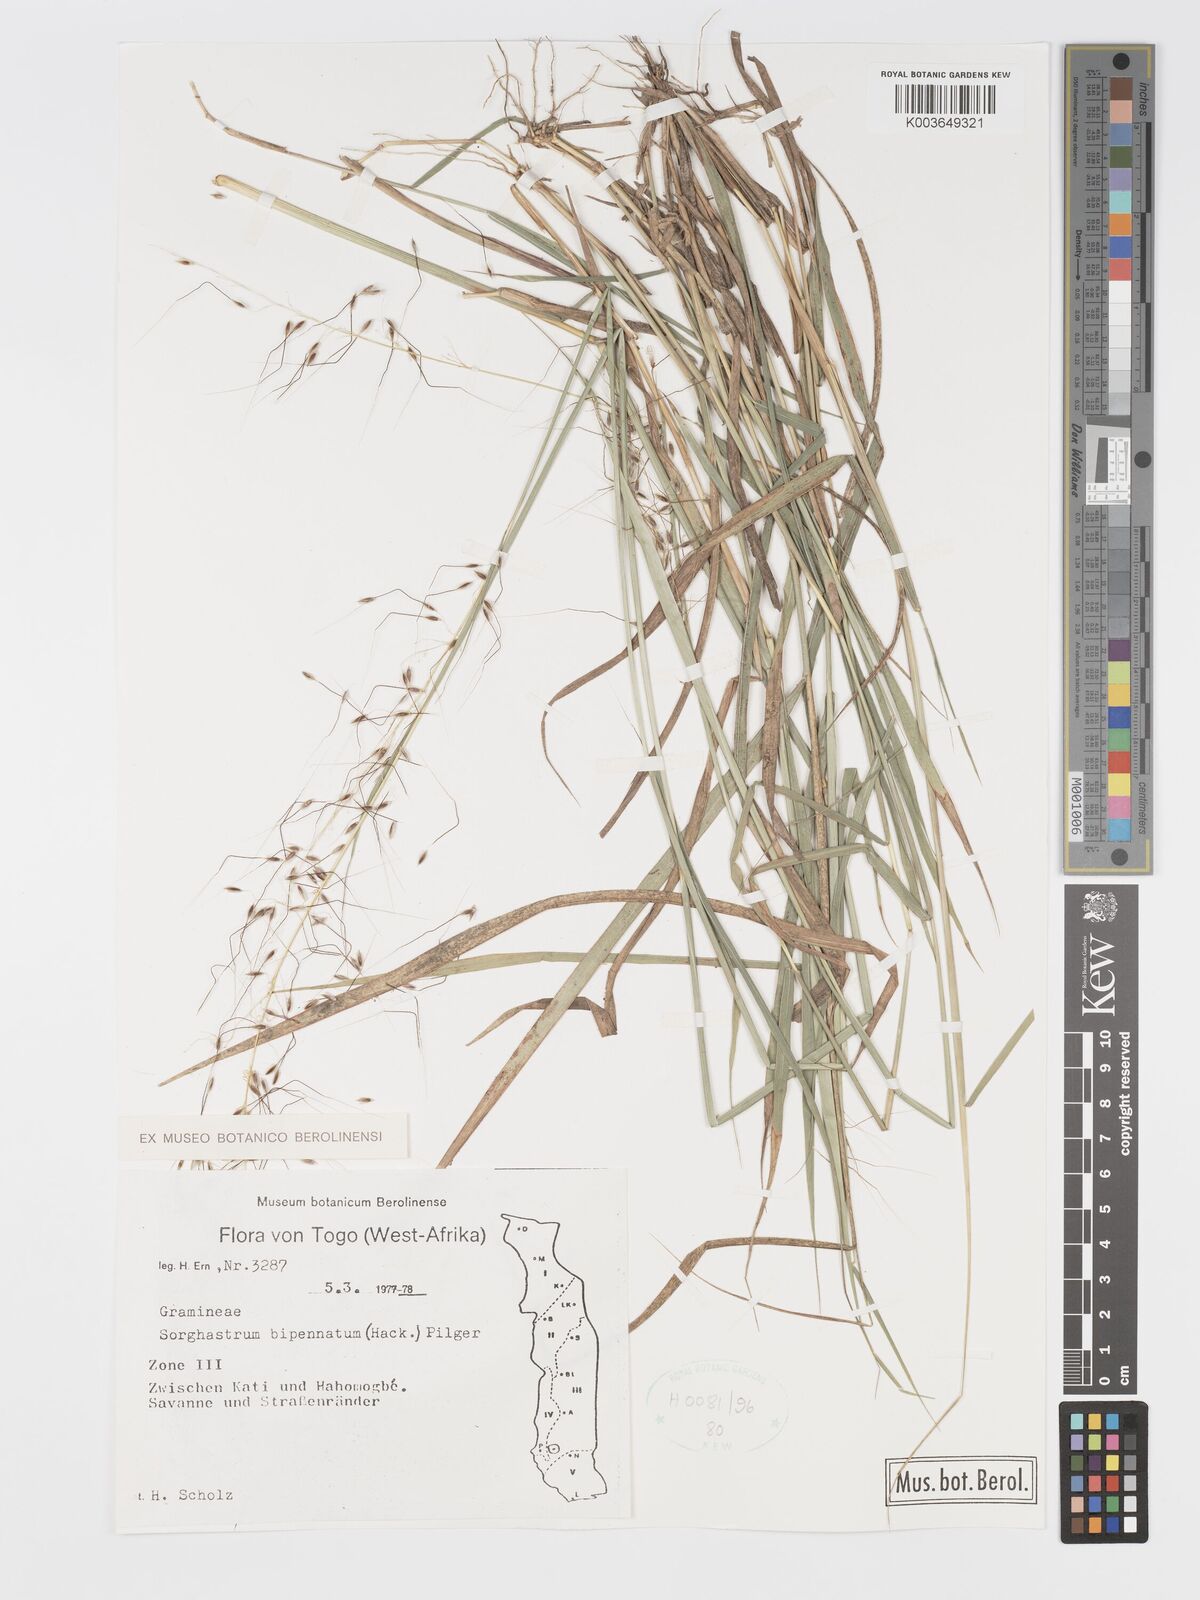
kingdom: Plantae
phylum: Tracheophyta
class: Liliopsida
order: Poales
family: Poaceae
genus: Sorghastrum
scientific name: Sorghastrum incompletum
